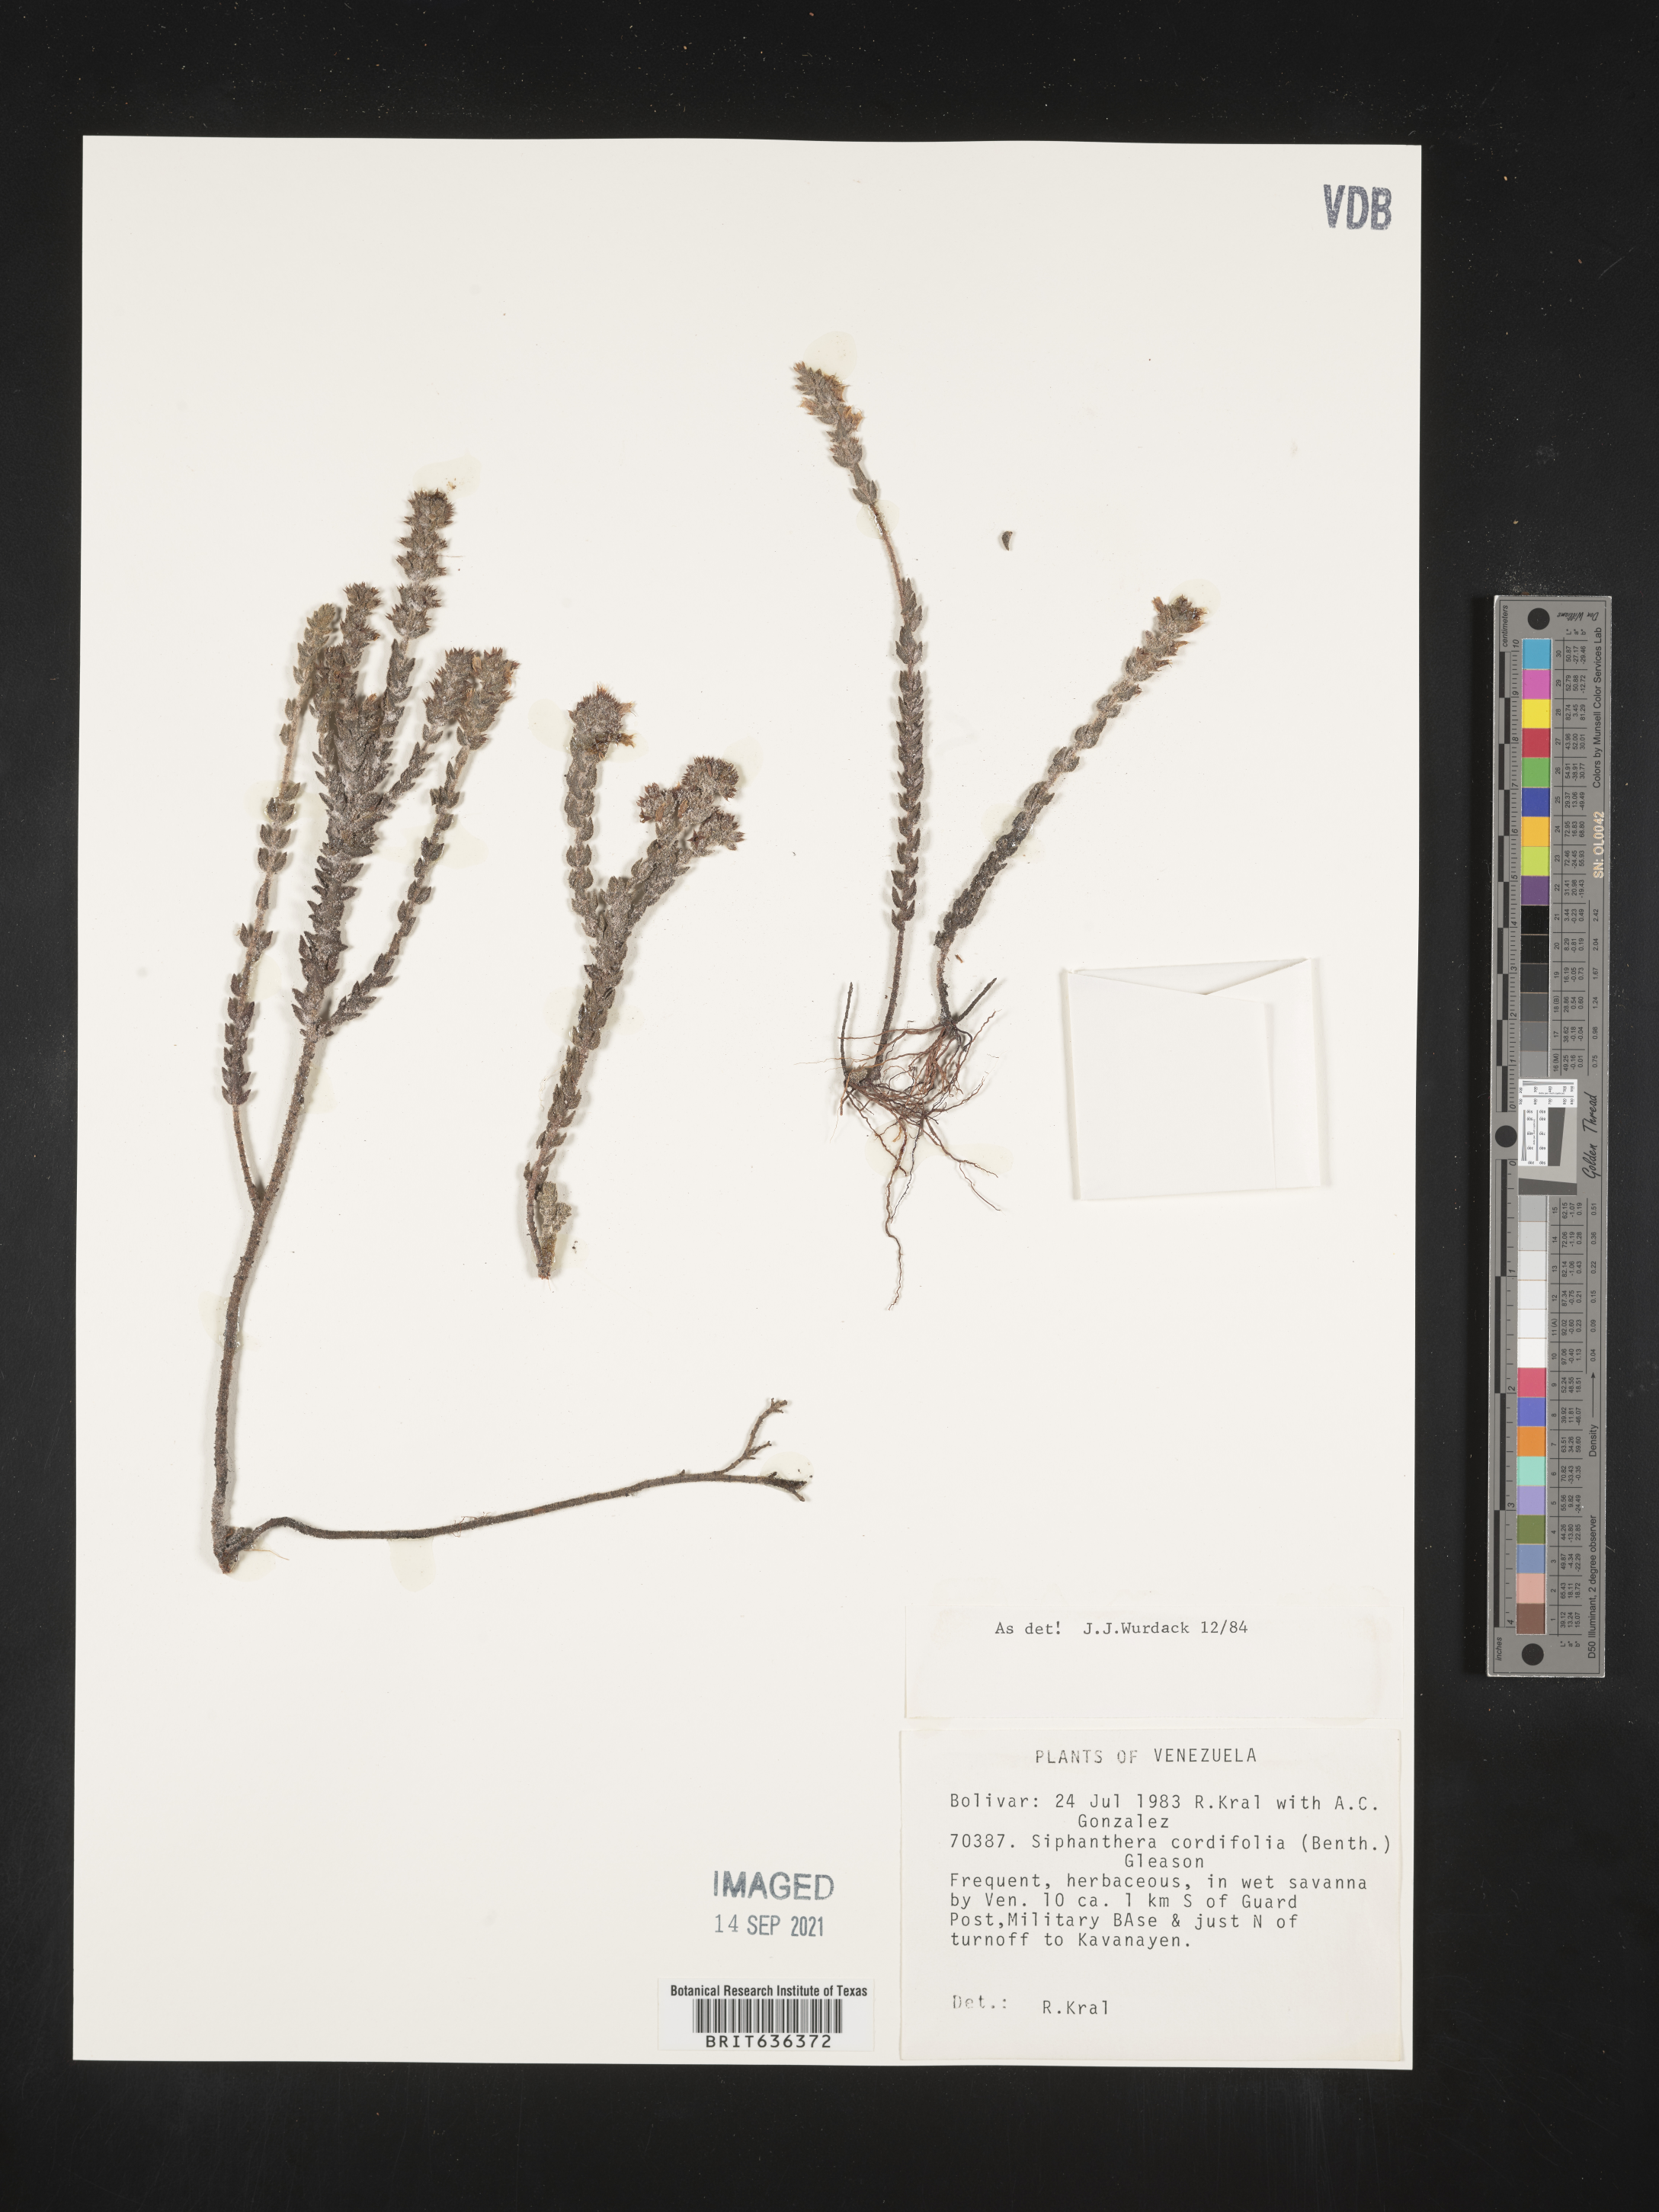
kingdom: Plantae
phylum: Tracheophyta
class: Magnoliopsida
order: Myrtales
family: Melastomataceae
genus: Siphanthera
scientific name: Siphanthera
